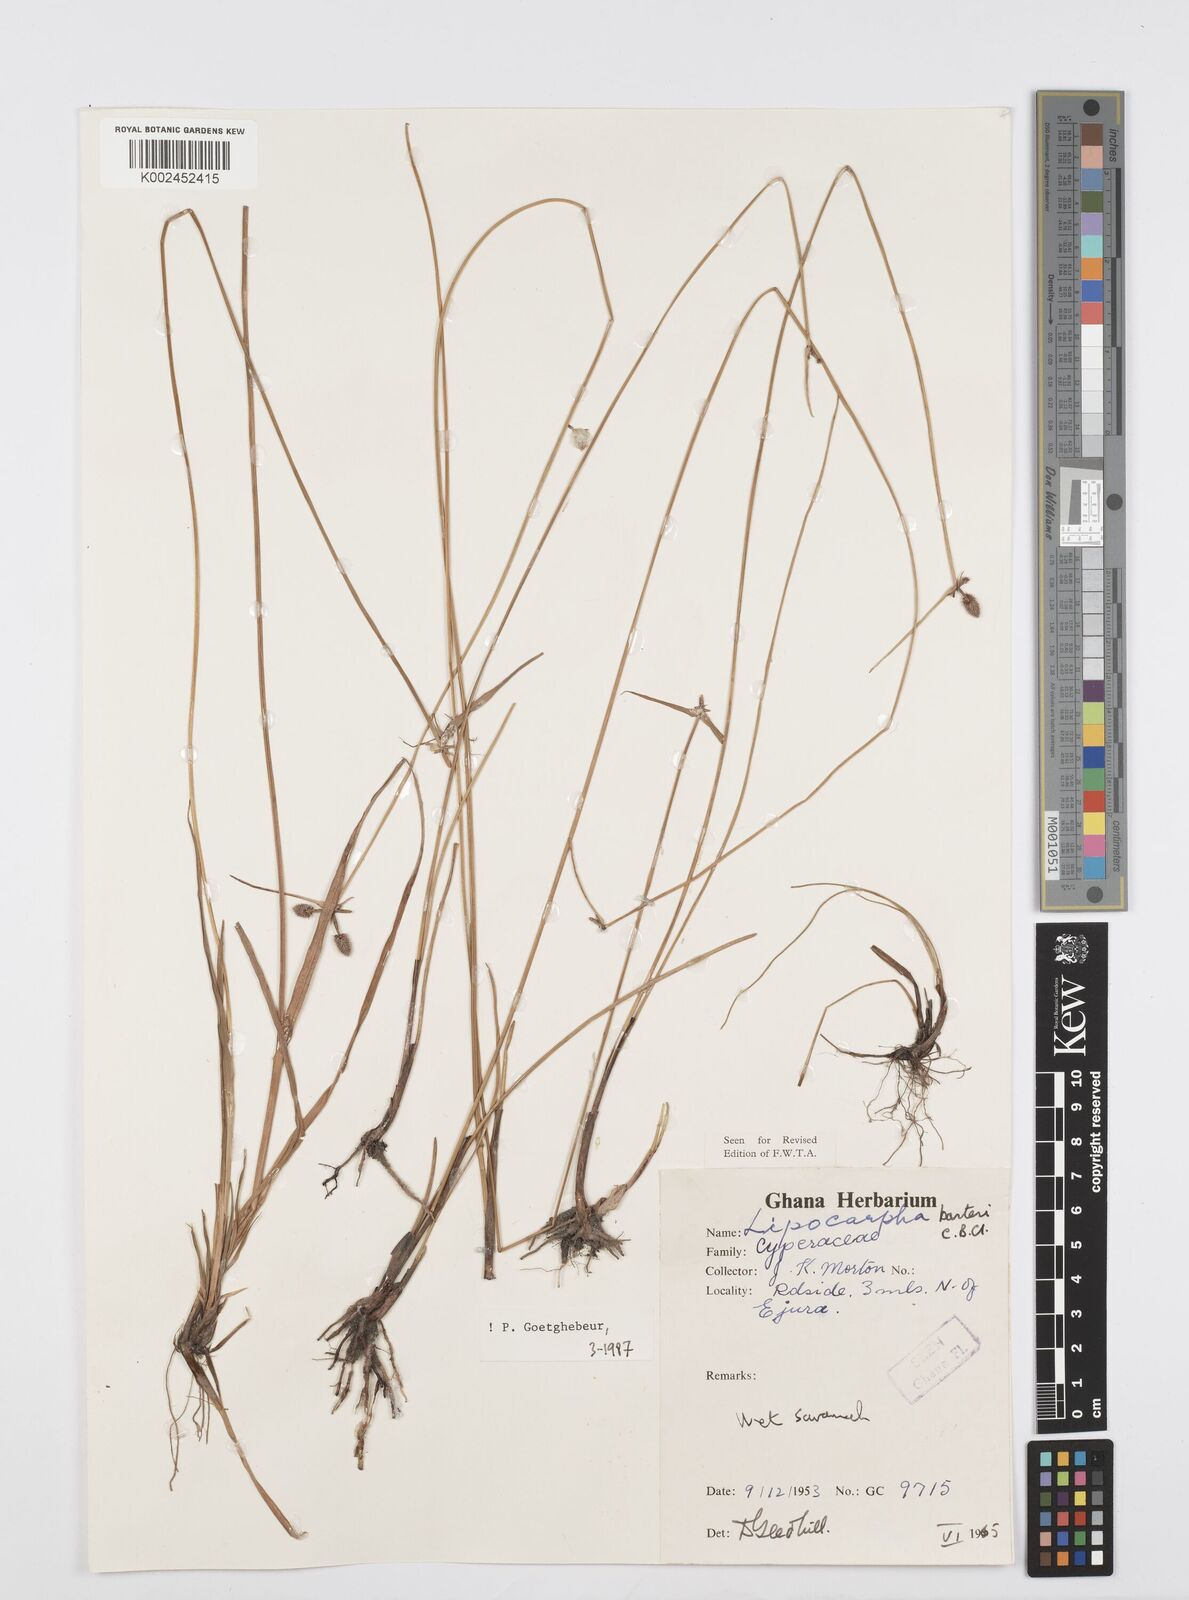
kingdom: Plantae
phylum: Tracheophyta
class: Liliopsida
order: Poales
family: Cyperaceae
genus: Cyperus
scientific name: Cyperus pustulatus
